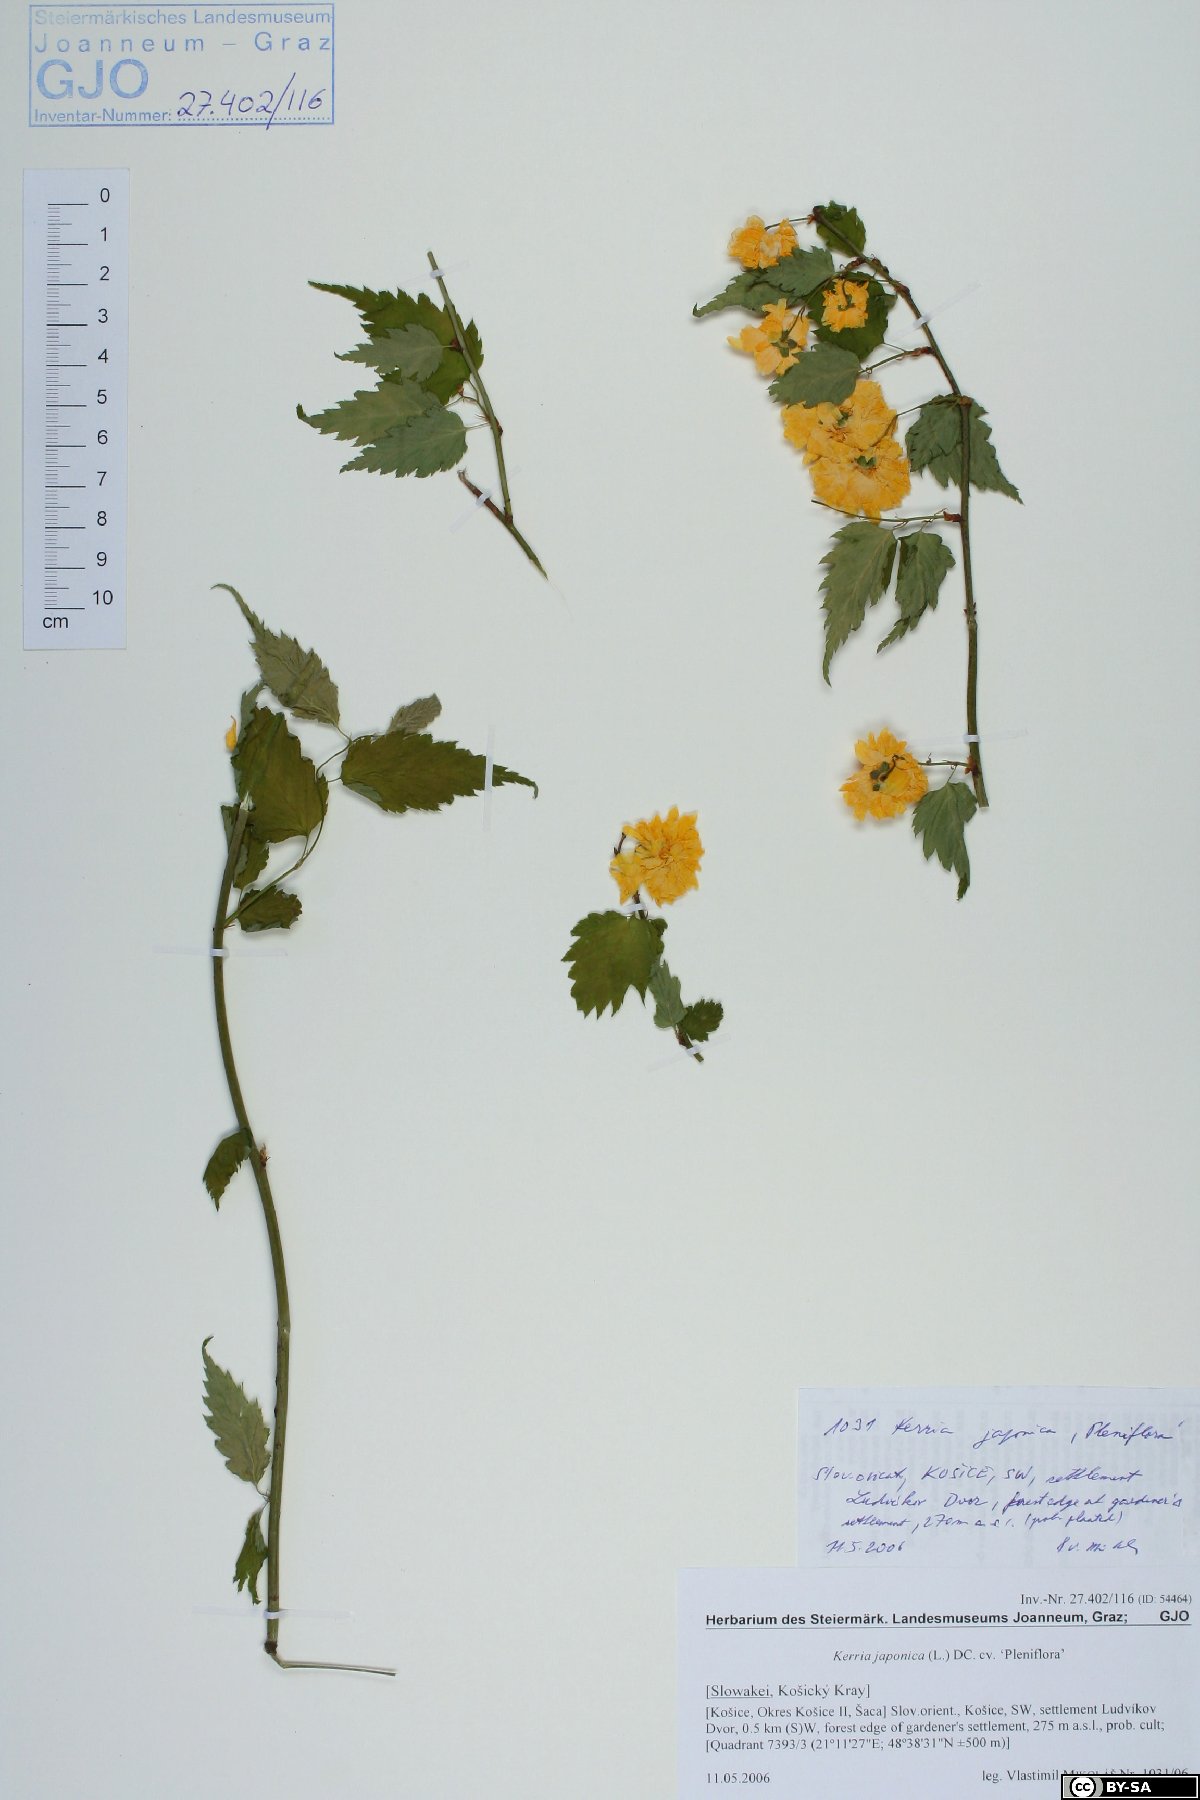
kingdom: Plantae
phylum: Tracheophyta
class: Magnoliopsida
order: Rosales
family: Rosaceae
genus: Kerria
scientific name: Kerria japonica
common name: Japanese kerria
